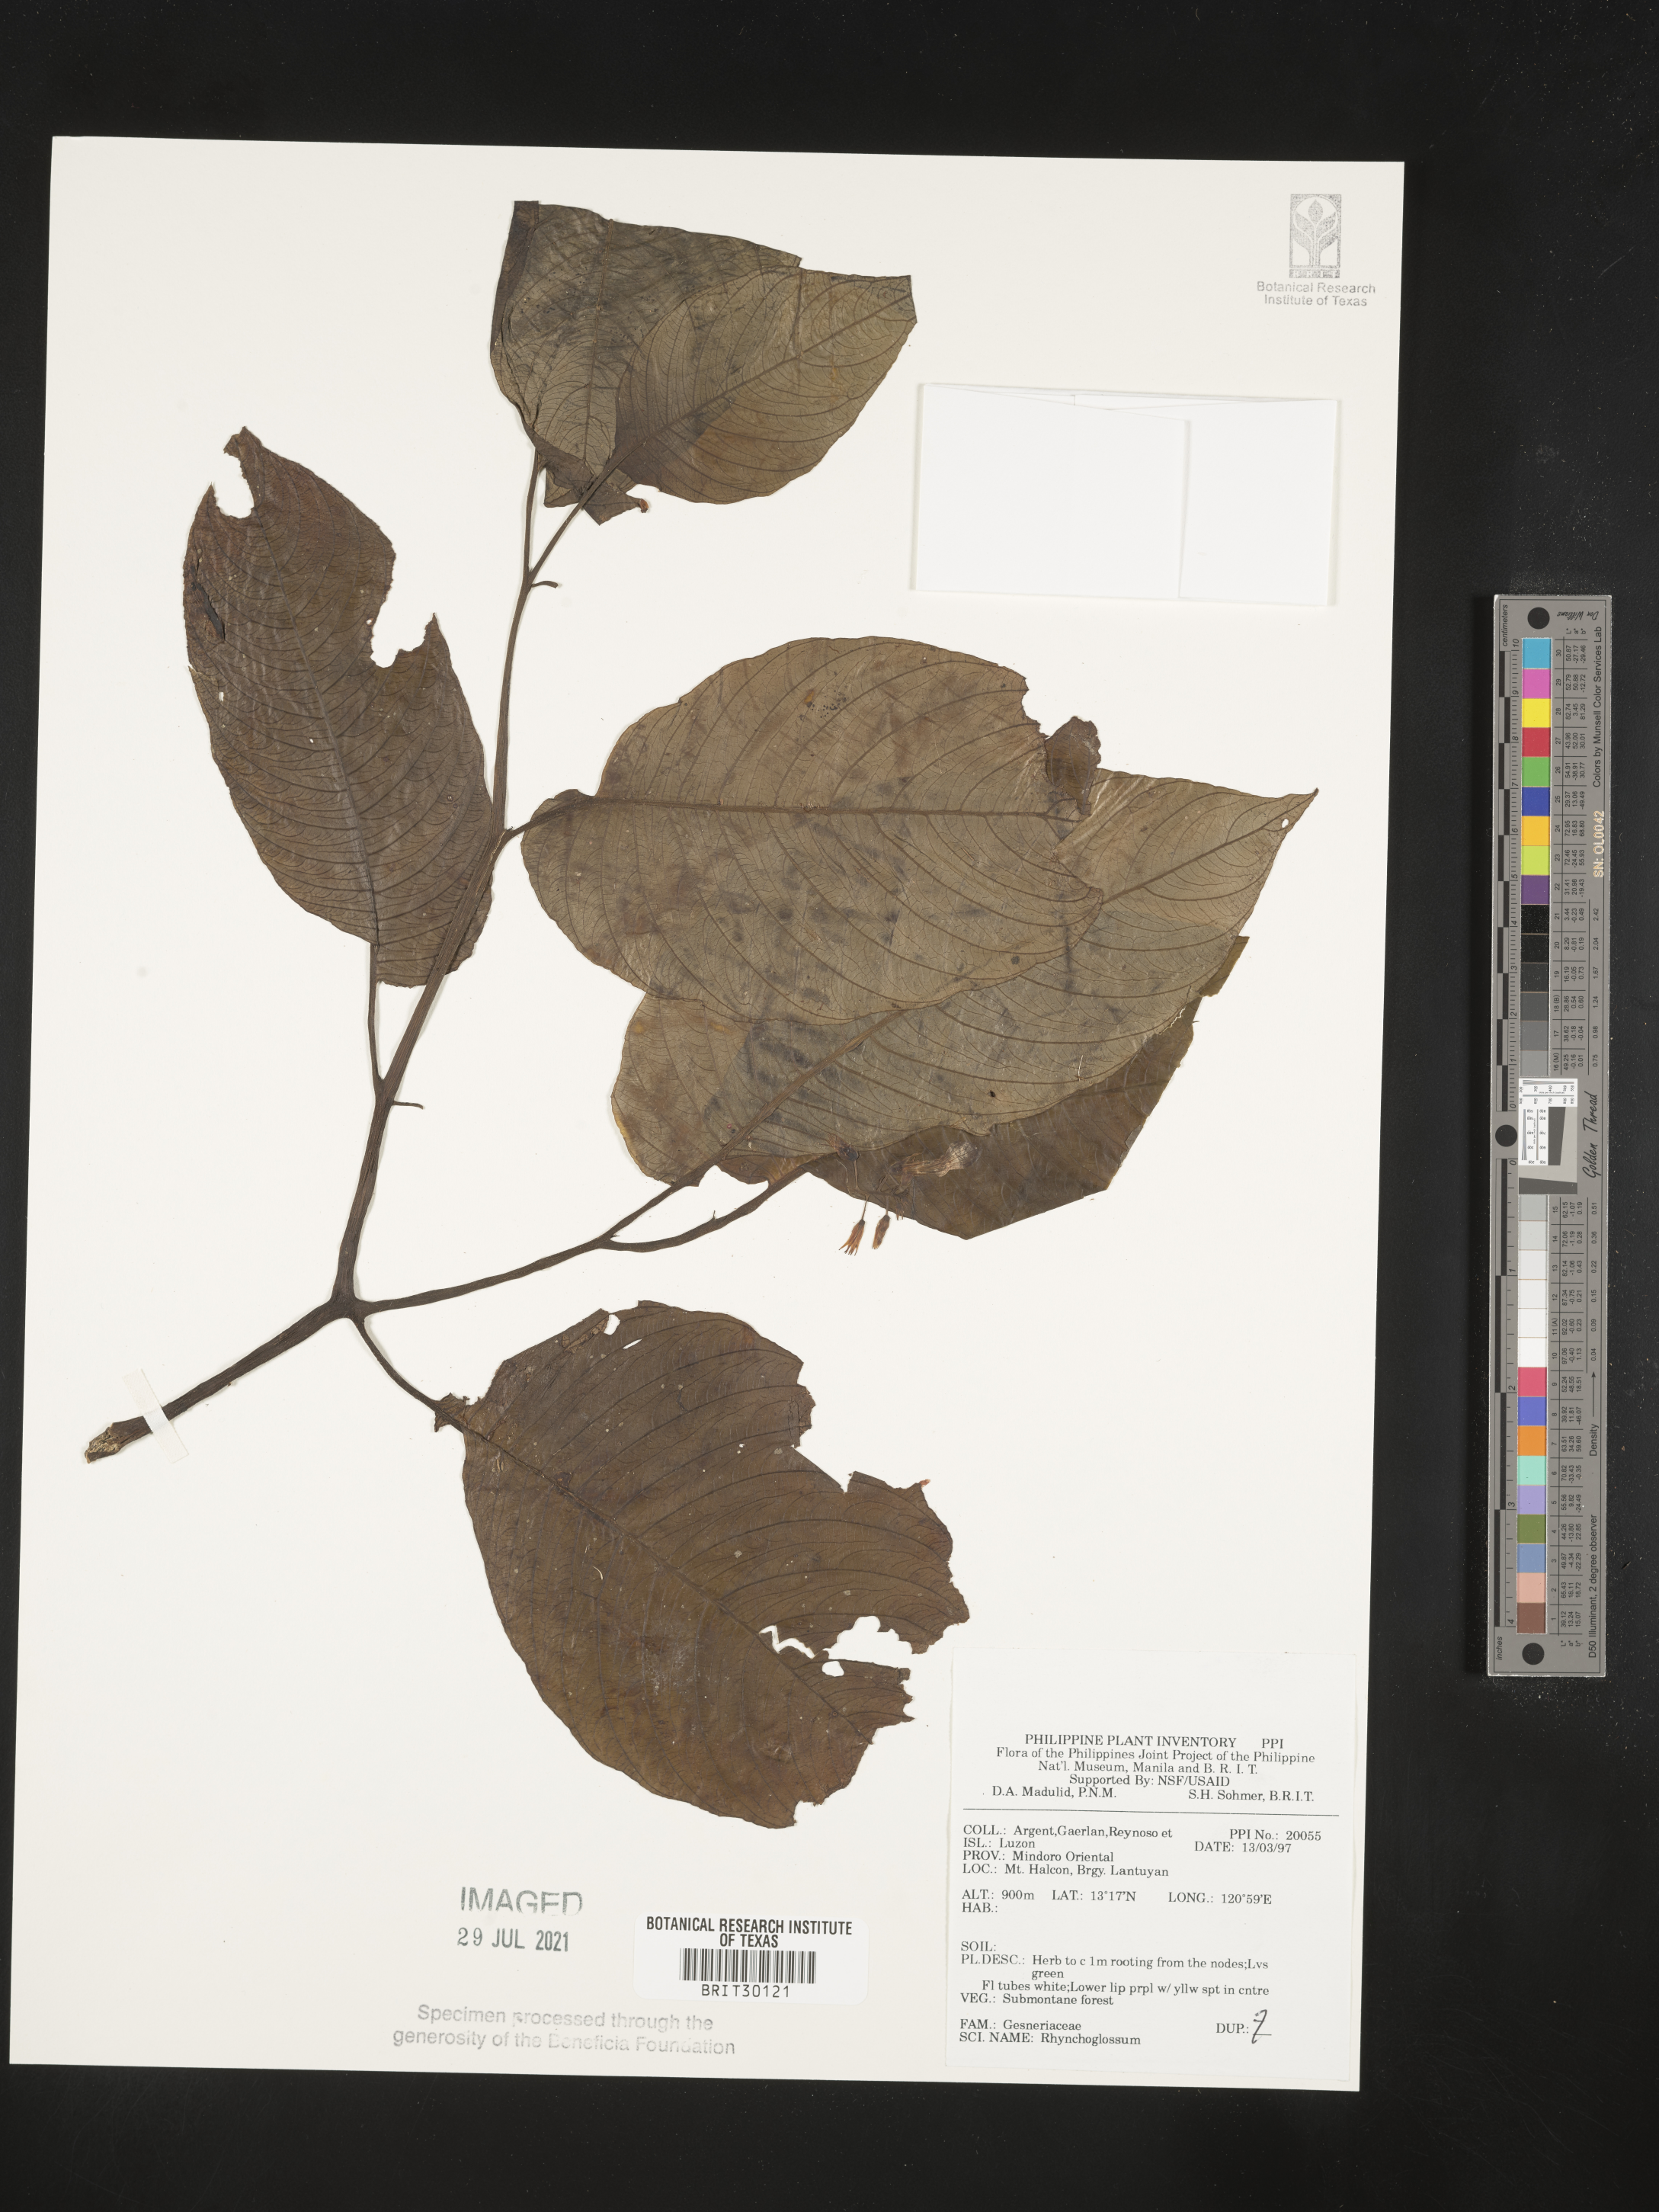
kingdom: Plantae
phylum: Tracheophyta
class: Magnoliopsida
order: Lamiales
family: Gesneriaceae
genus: Rhynchoglossum
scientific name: Rhynchoglossum
